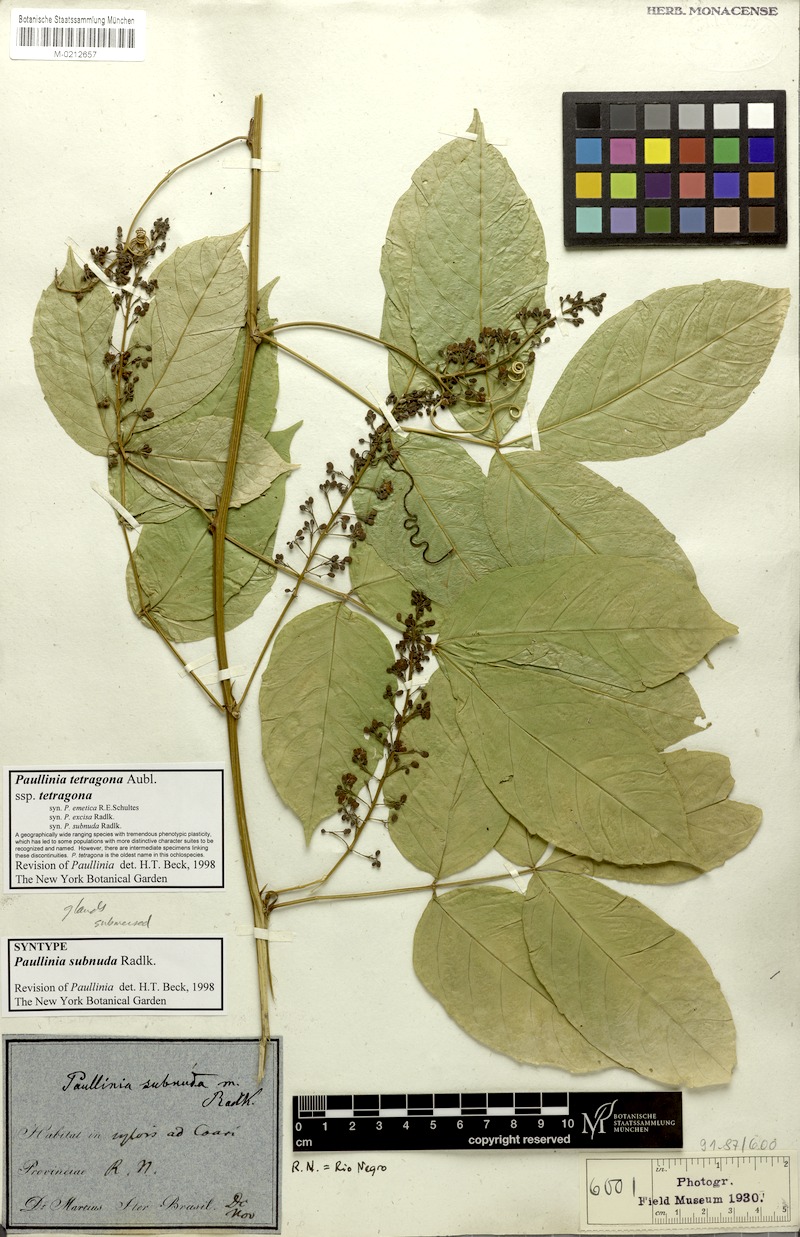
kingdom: Plantae
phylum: Tracheophyta
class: Magnoliopsida
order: Sapindales
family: Sapindaceae
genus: Paullinia
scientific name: Paullinia tetragona
